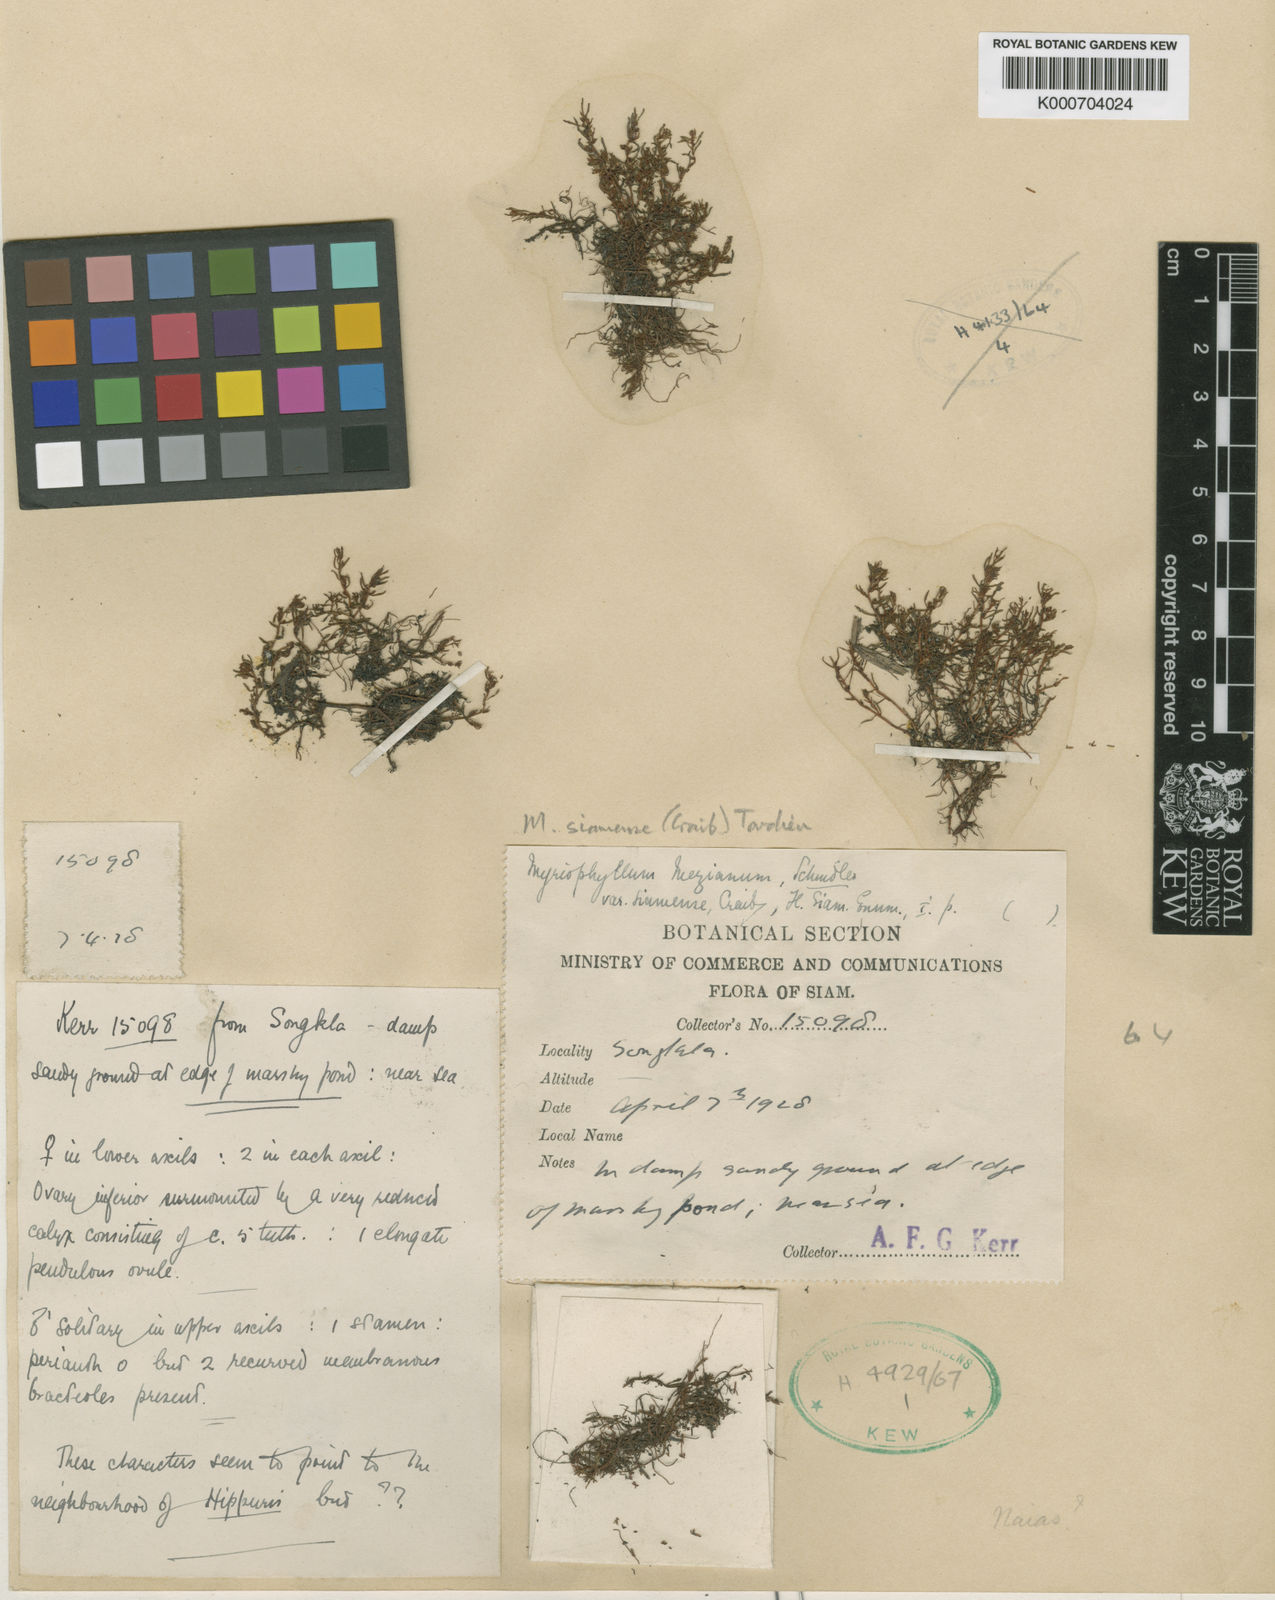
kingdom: Plantae
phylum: Tracheophyta
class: Magnoliopsida
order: Saxifragales
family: Haloragaceae
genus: Myriophyllum
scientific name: Myriophyllum mezianum
